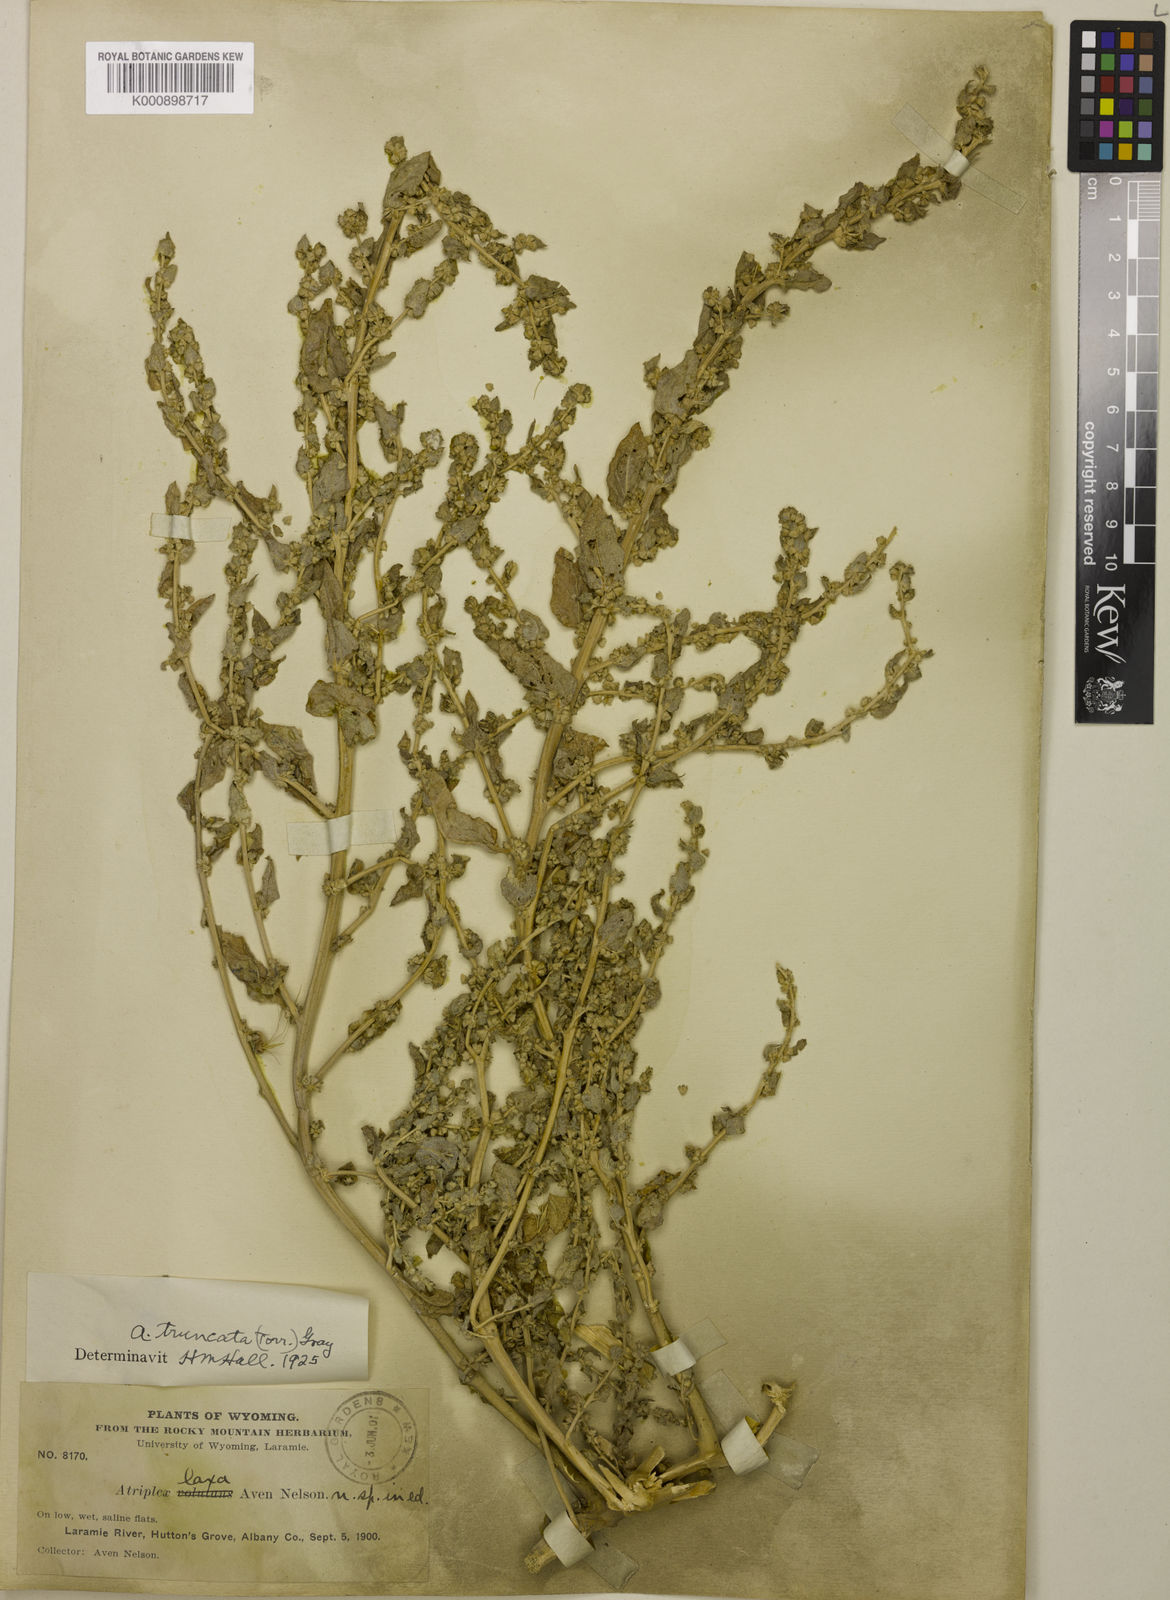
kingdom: Plantae
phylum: Tracheophyta
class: Magnoliopsida
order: Caryophyllales
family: Amaranthaceae
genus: Atriplex
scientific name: Atriplex truncata
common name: Wedge-orach
